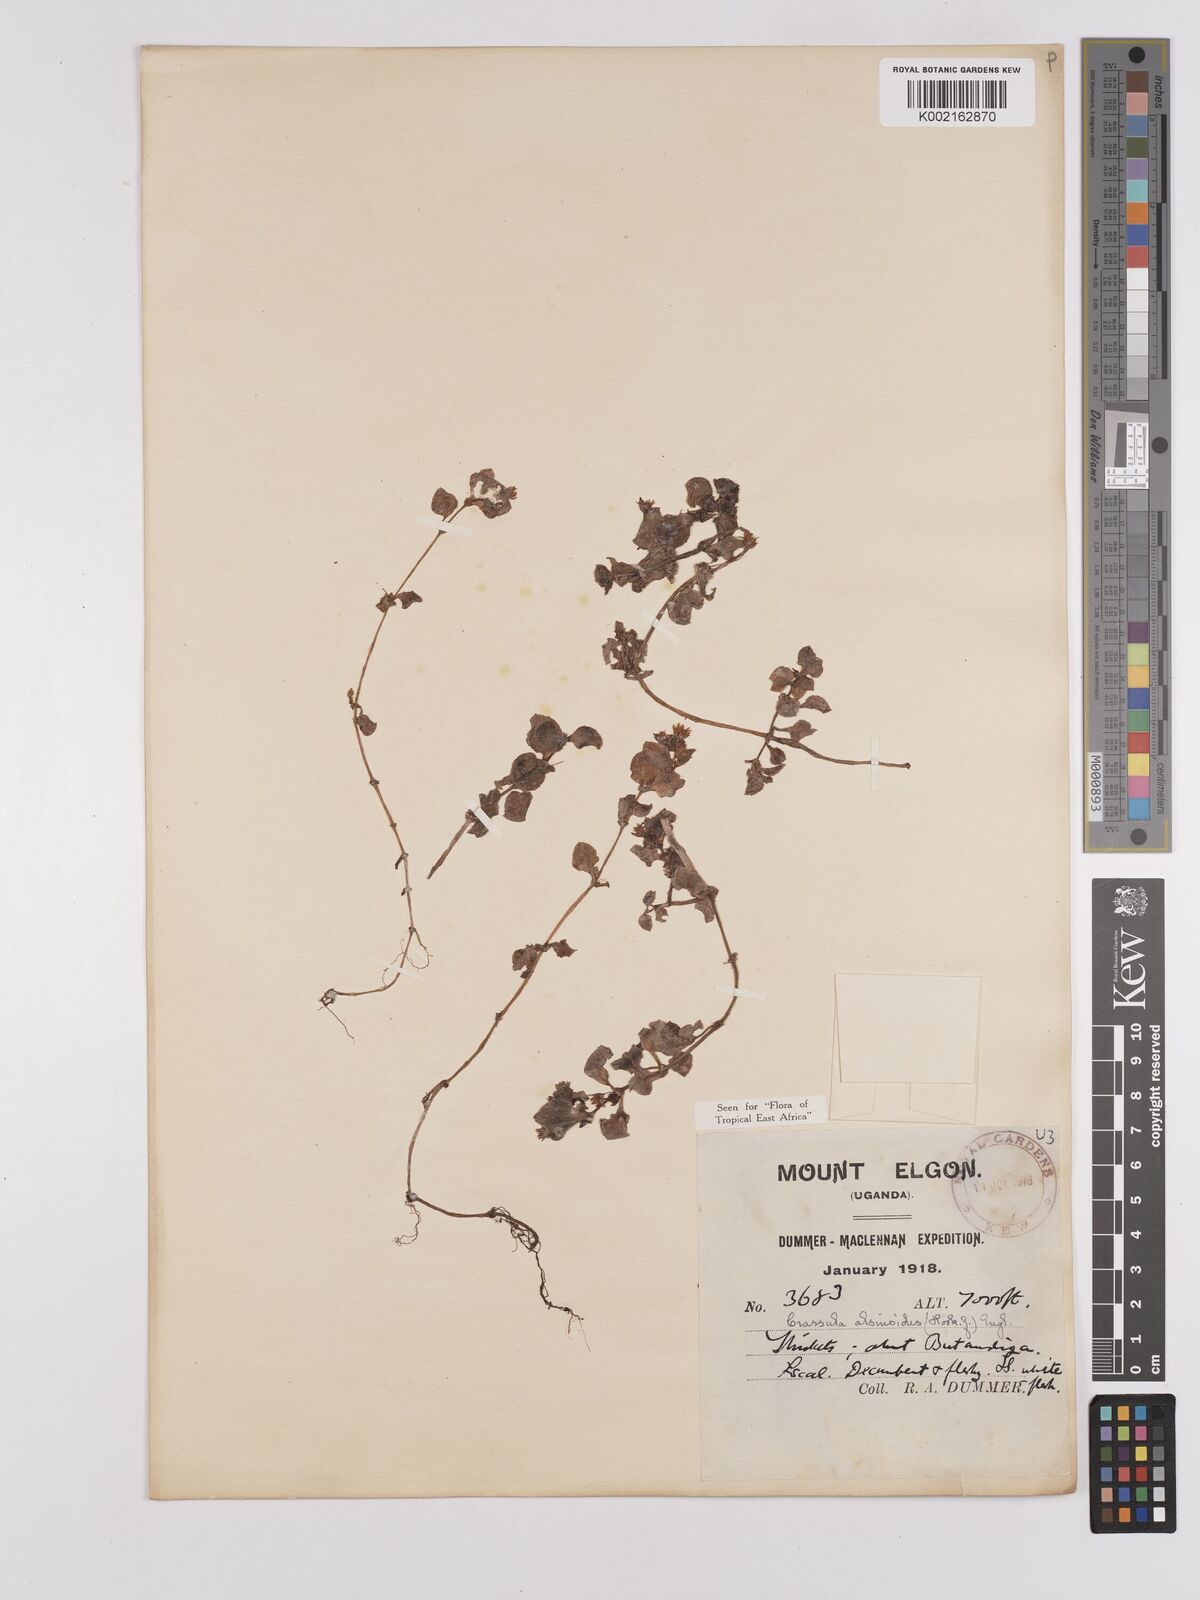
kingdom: Plantae
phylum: Tracheophyta
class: Magnoliopsida
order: Saxifragales
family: Crassulaceae
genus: Crassula
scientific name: Crassula alsinoides
